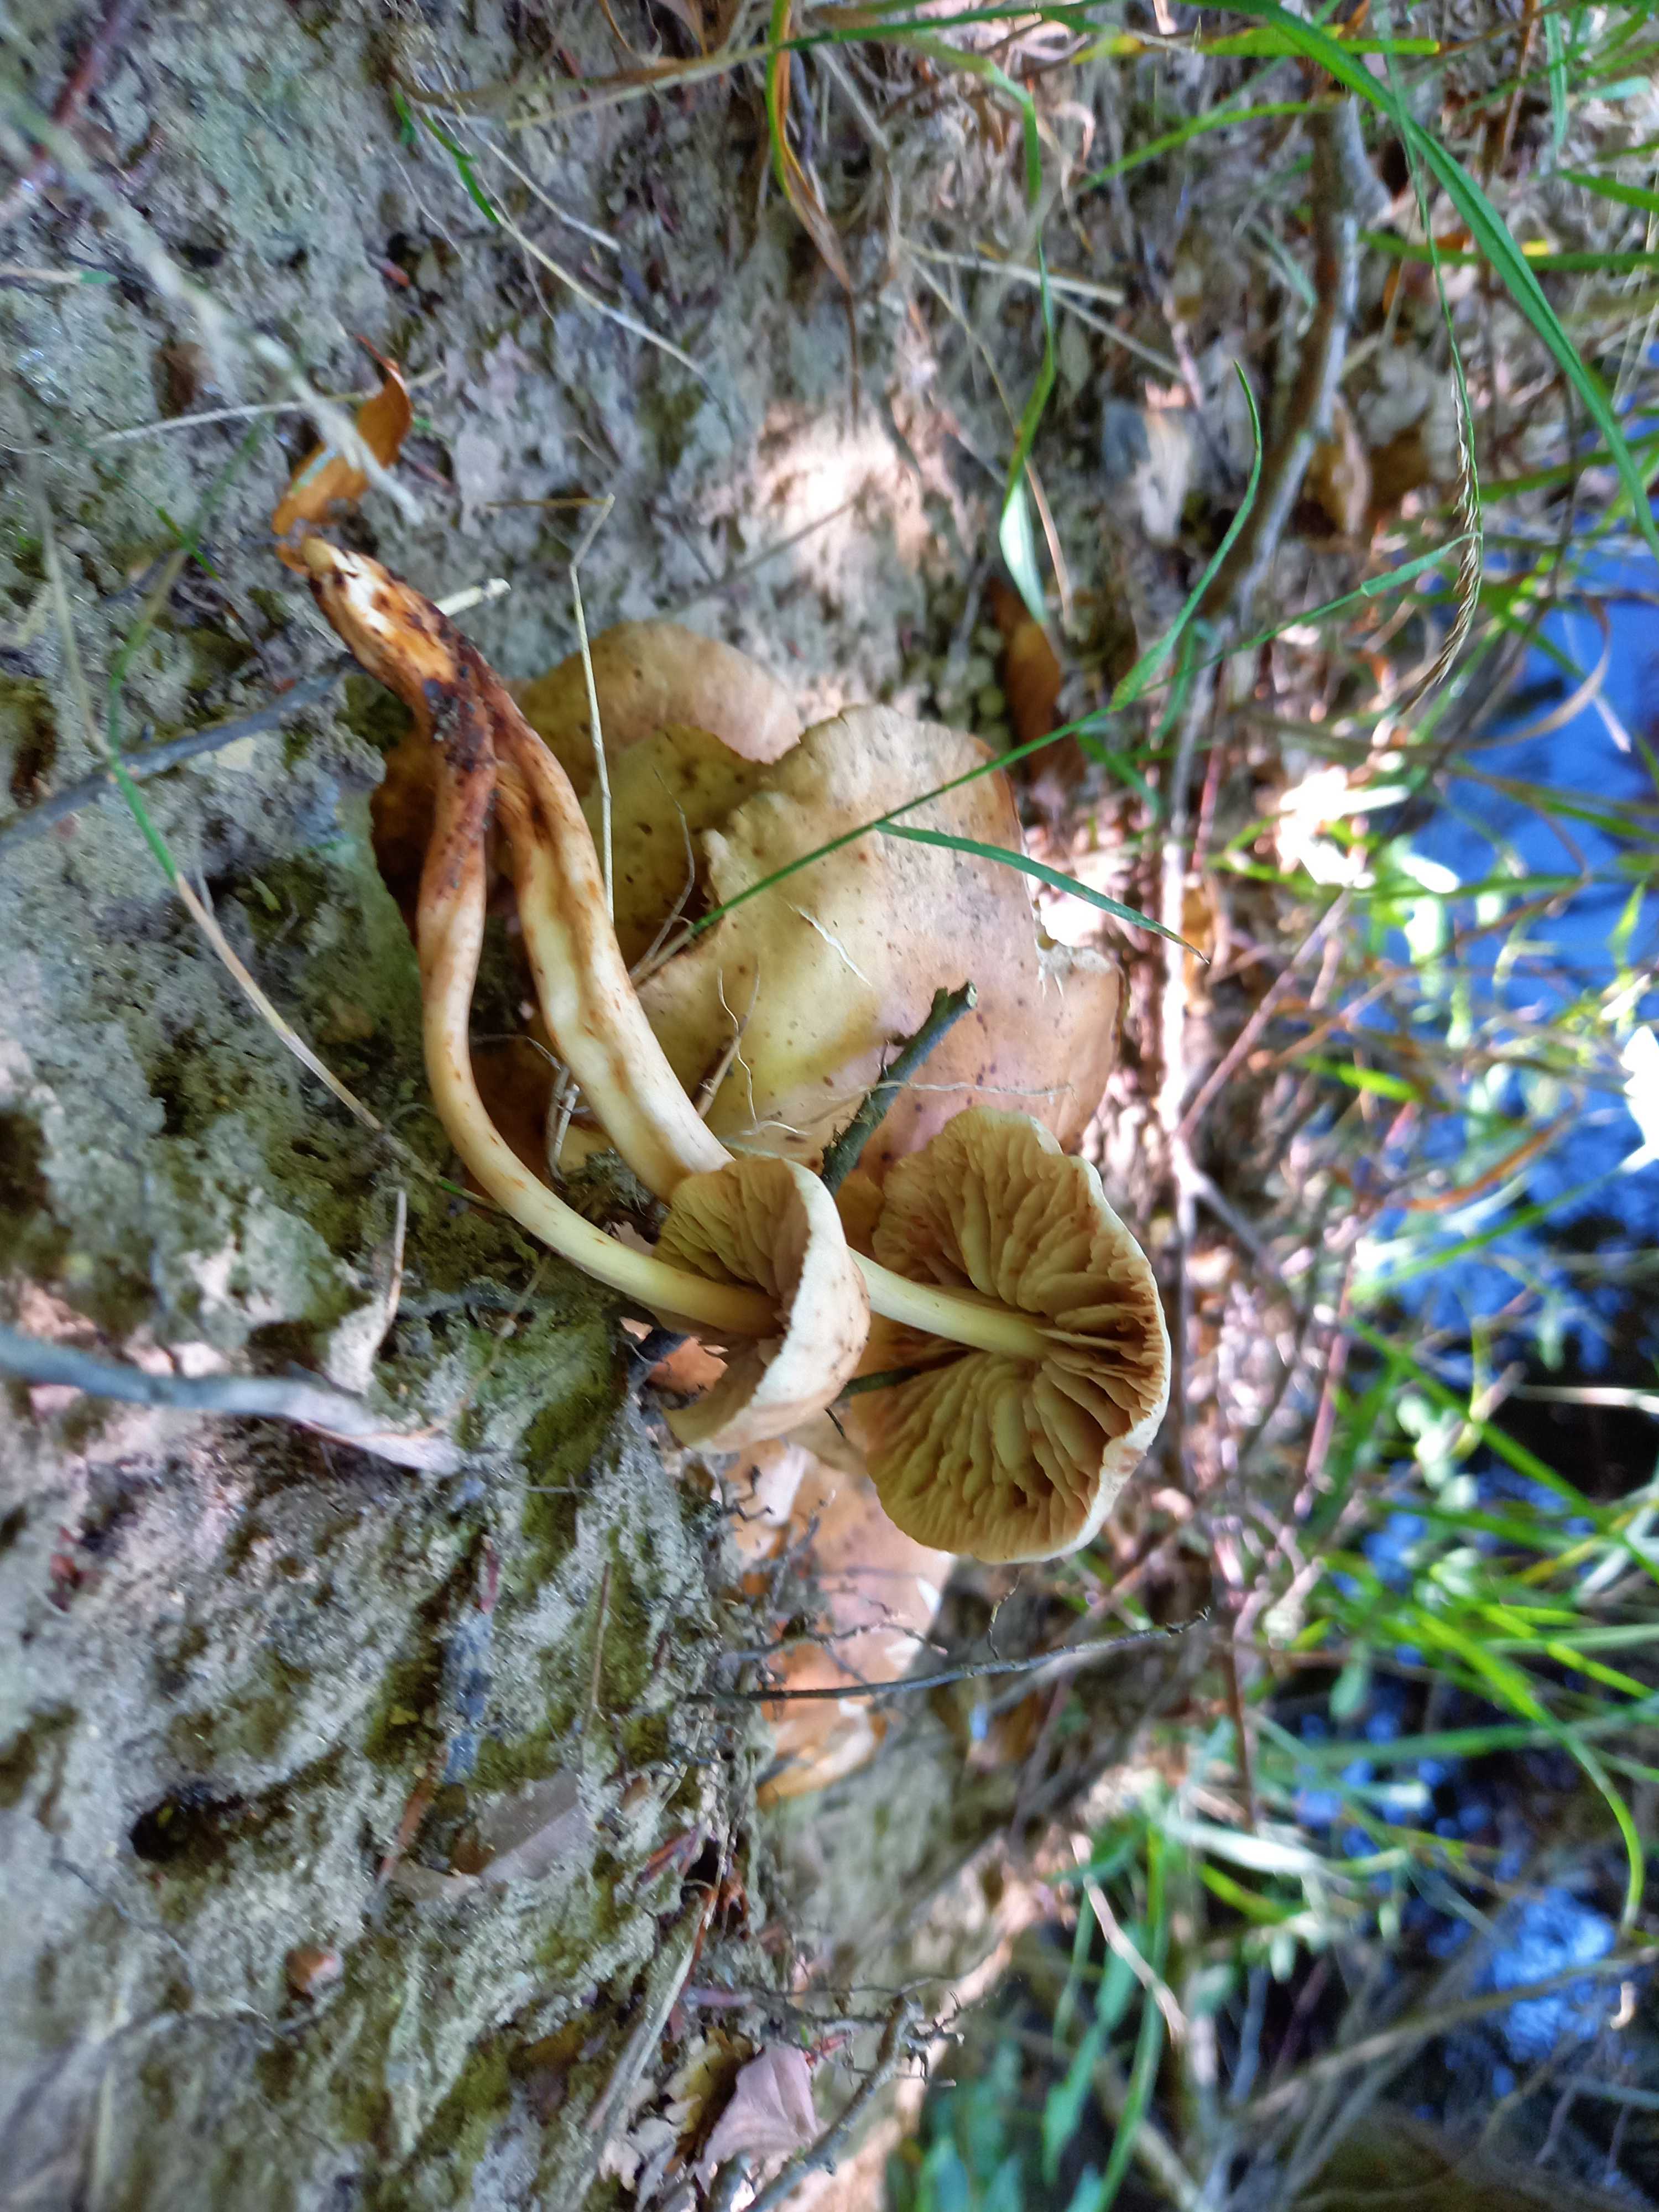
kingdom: Fungi
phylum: Basidiomycota
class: Agaricomycetes
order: Agaricales
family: Omphalotaceae
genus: Gymnopus
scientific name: Gymnopus fusipes
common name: tenstokket fladhat
